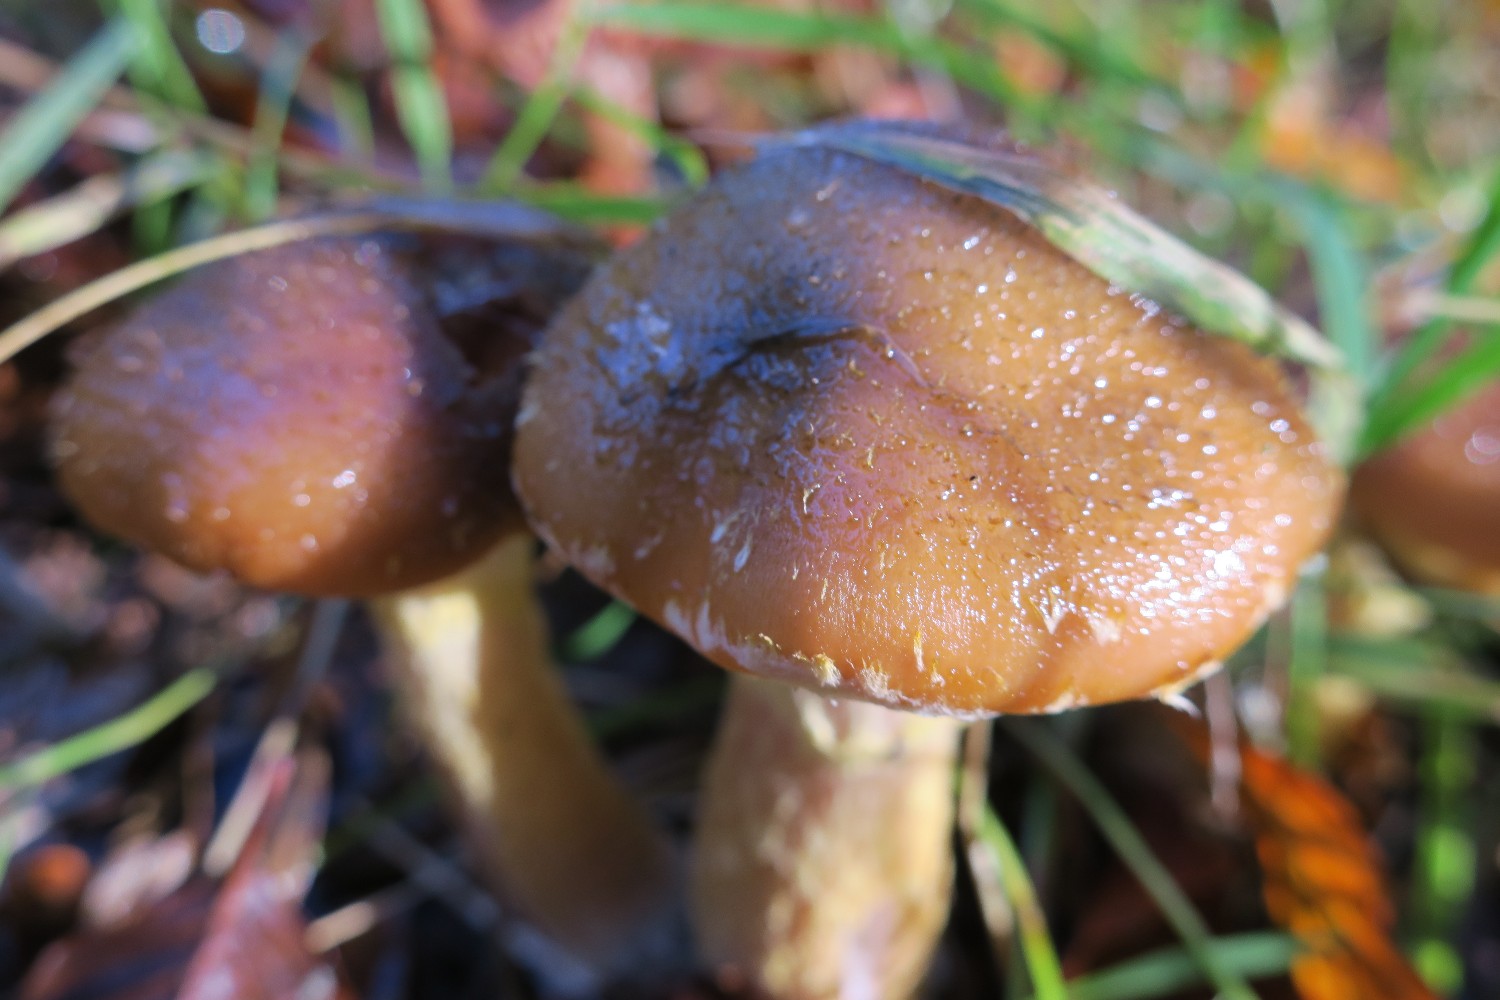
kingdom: Fungi
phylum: Basidiomycota
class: Agaricomycetes
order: Agaricales
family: Physalacriaceae
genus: Armillaria
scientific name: Armillaria lutea
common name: køllestokket honningsvamp
